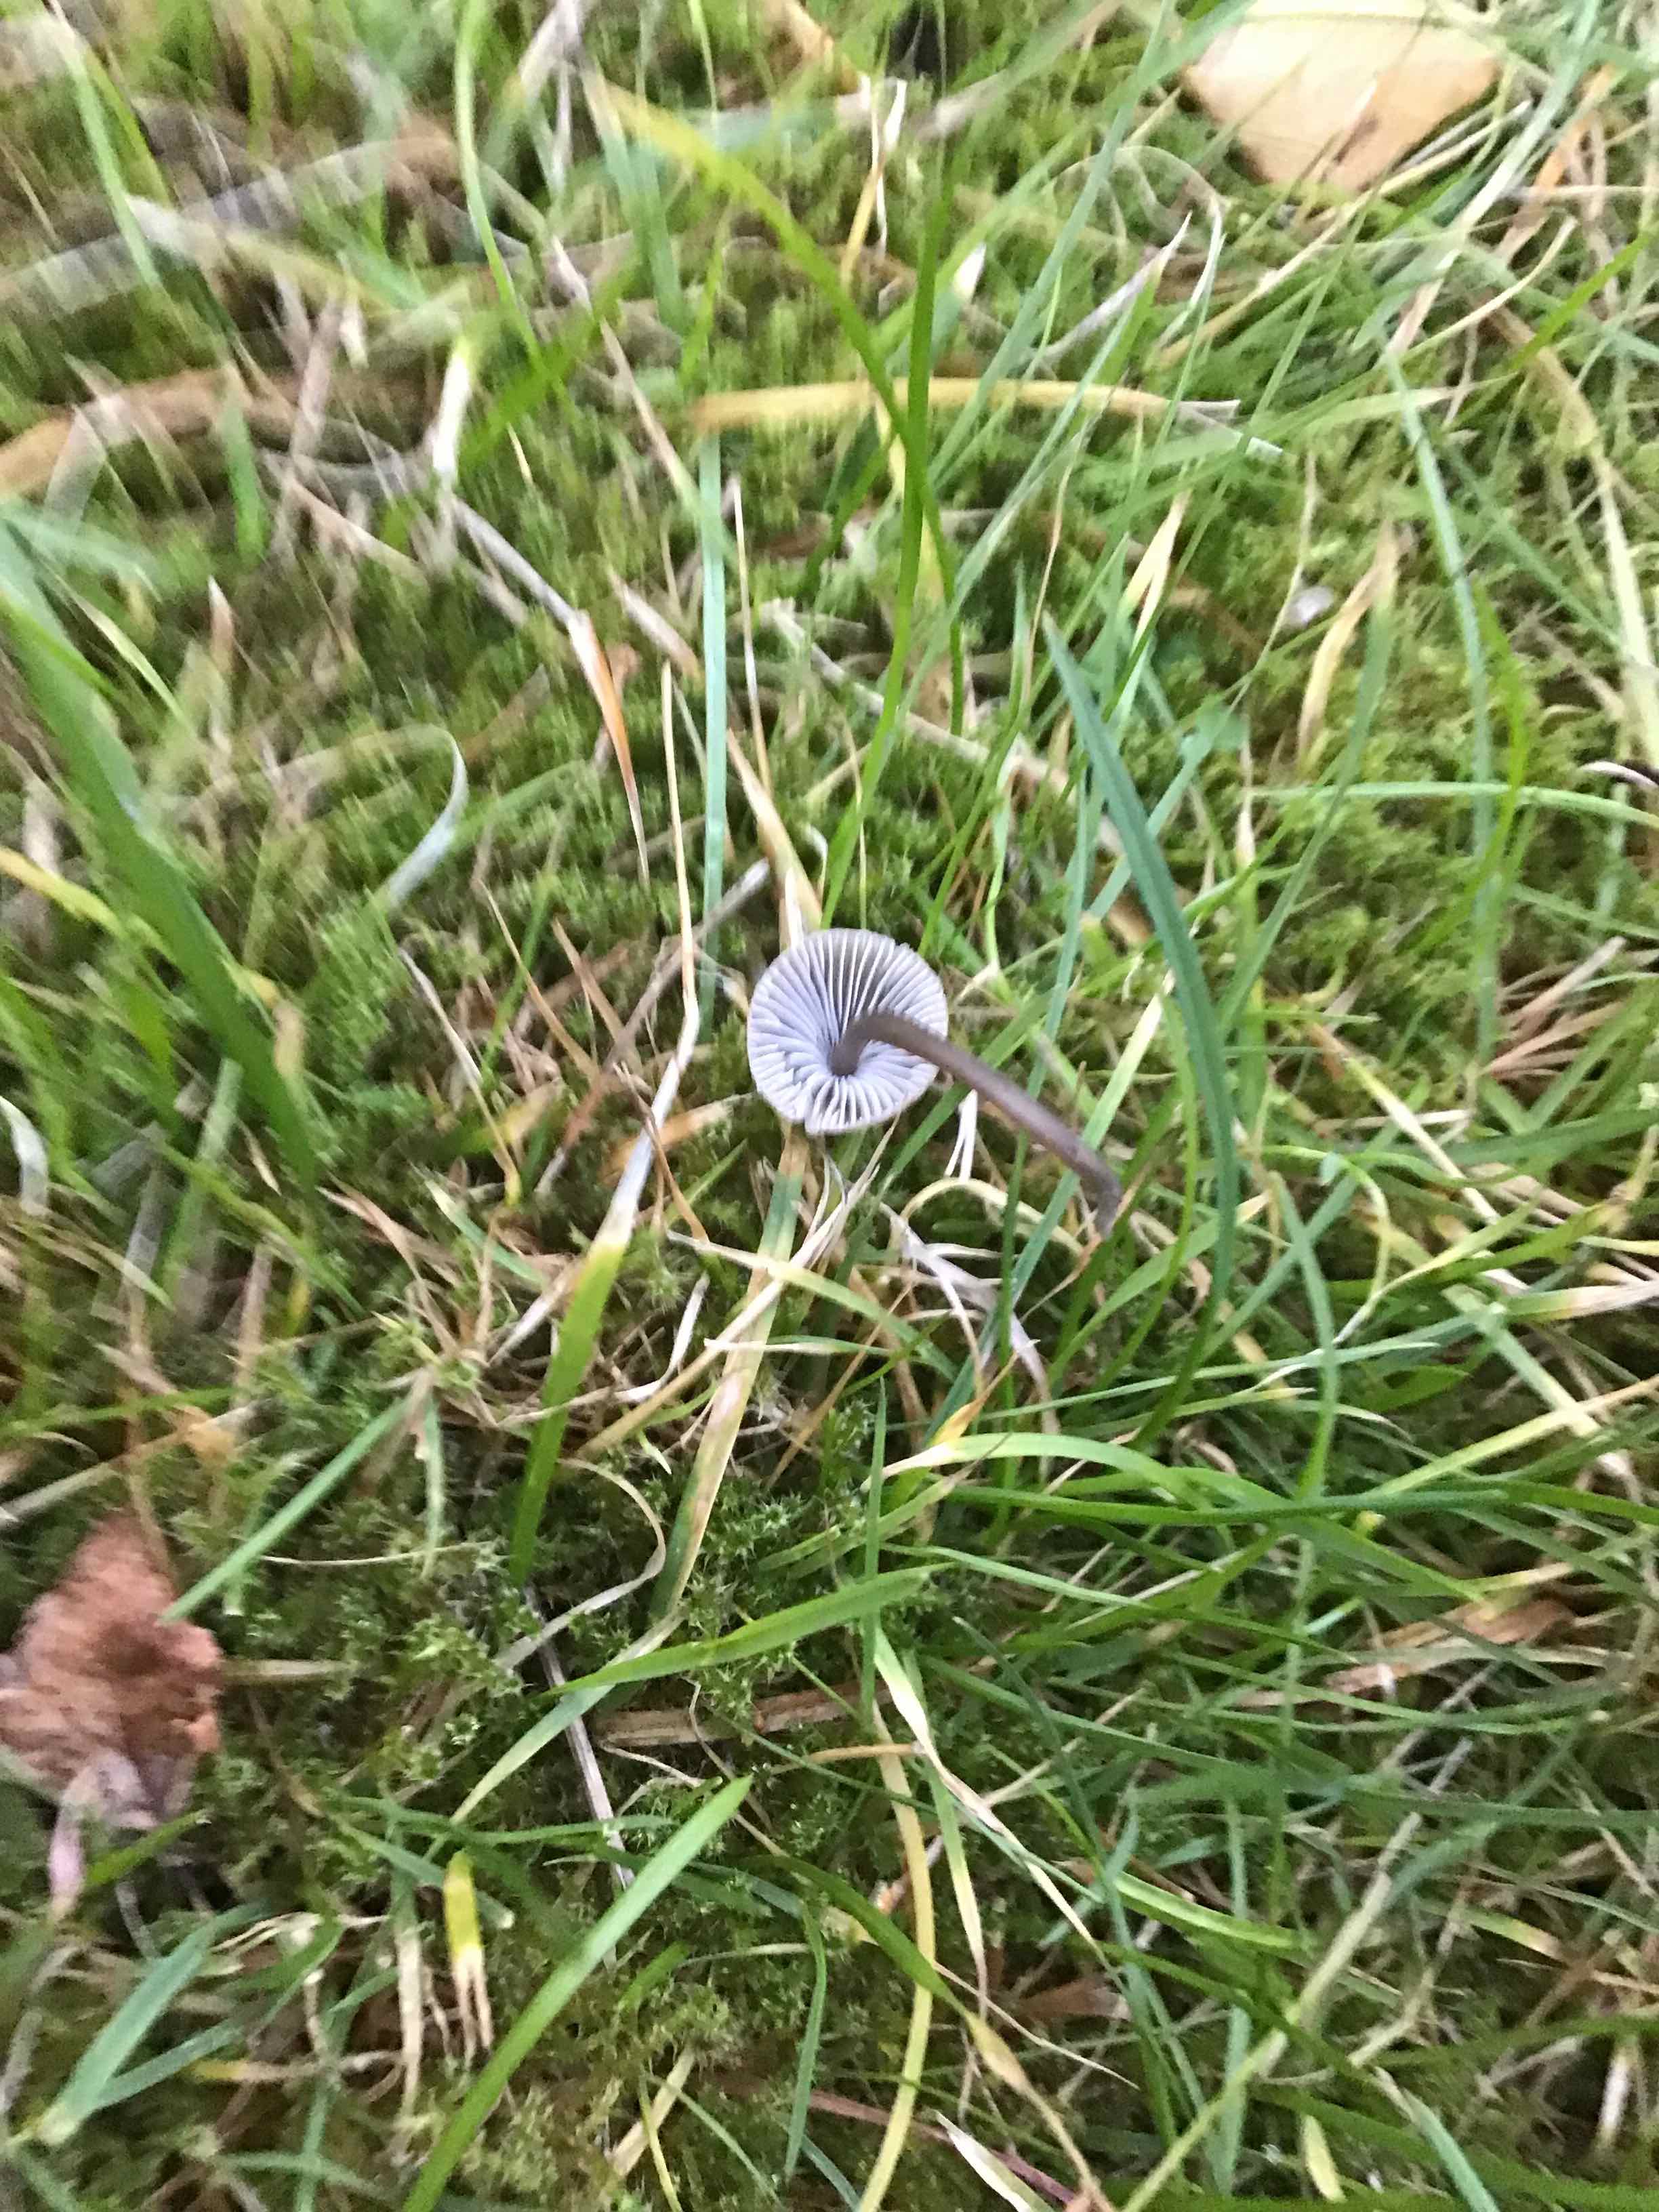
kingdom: Fungi
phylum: Basidiomycota
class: Agaricomycetes
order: Agaricales
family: Mycenaceae
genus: Mycena
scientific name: Mycena
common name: huesvamp
